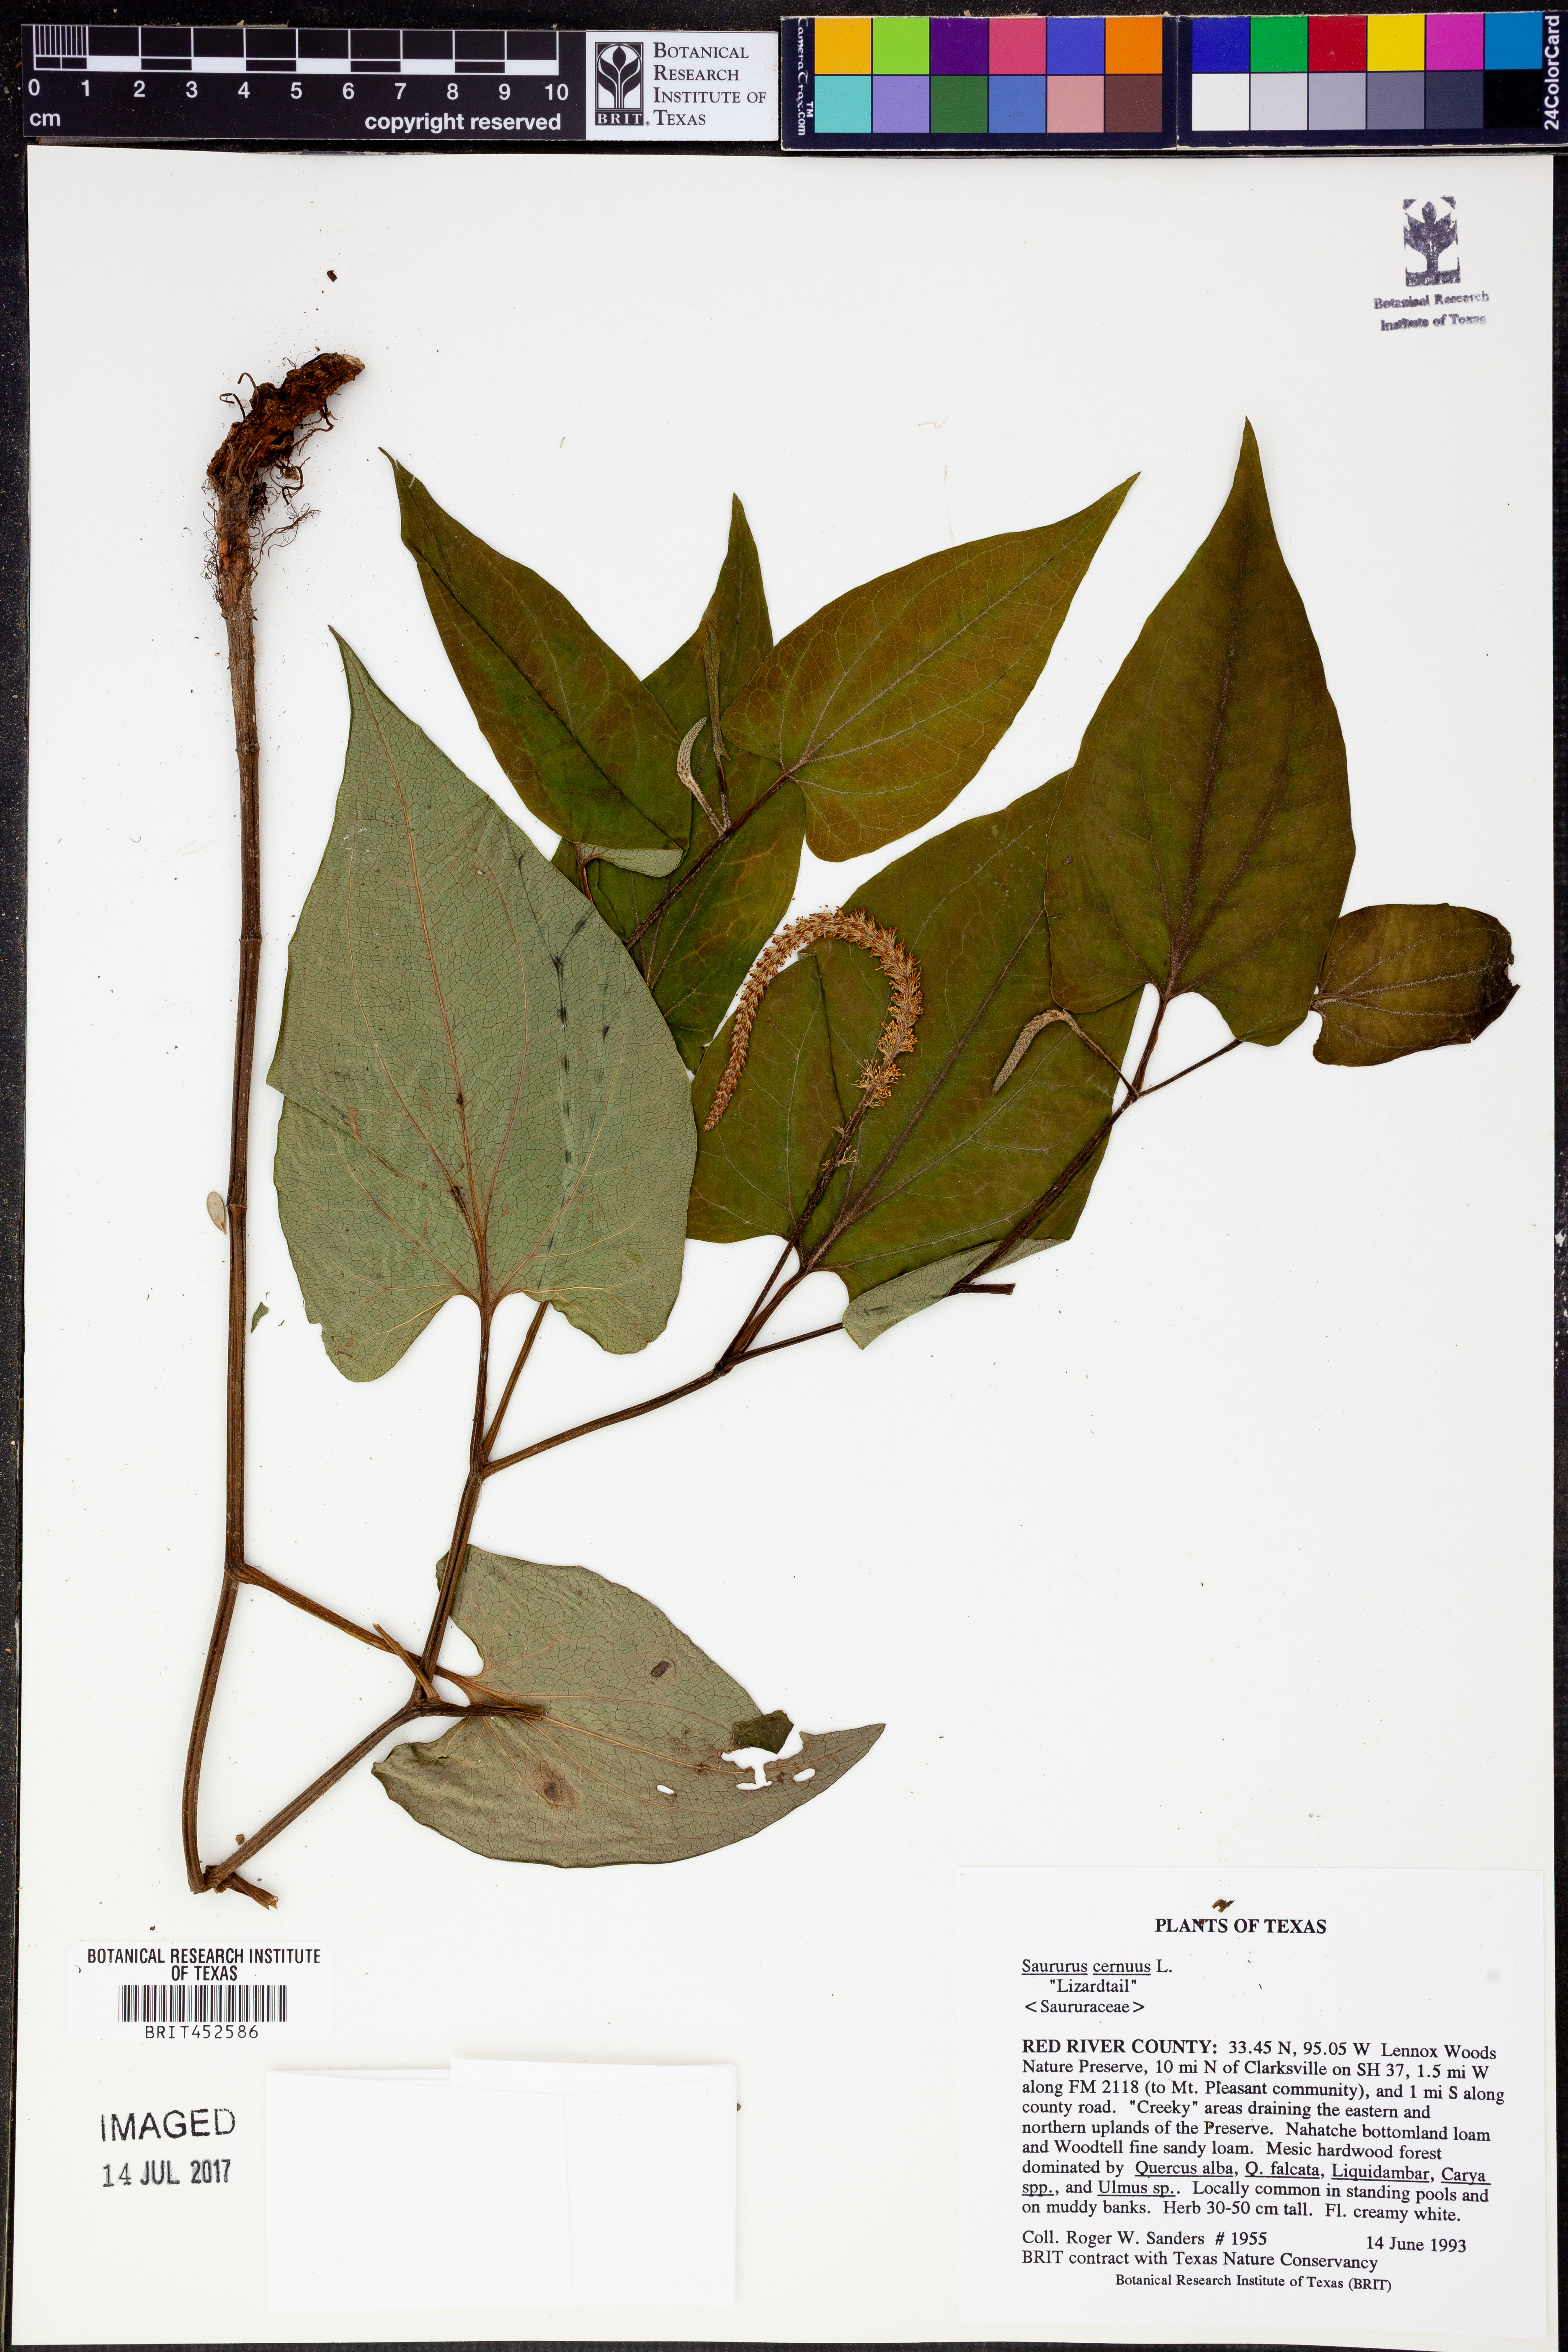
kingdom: Plantae
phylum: Tracheophyta
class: Magnoliopsida
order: Piperales
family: Saururaceae
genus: Saururus
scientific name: Saururus cernuus
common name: Lizard's-tail
